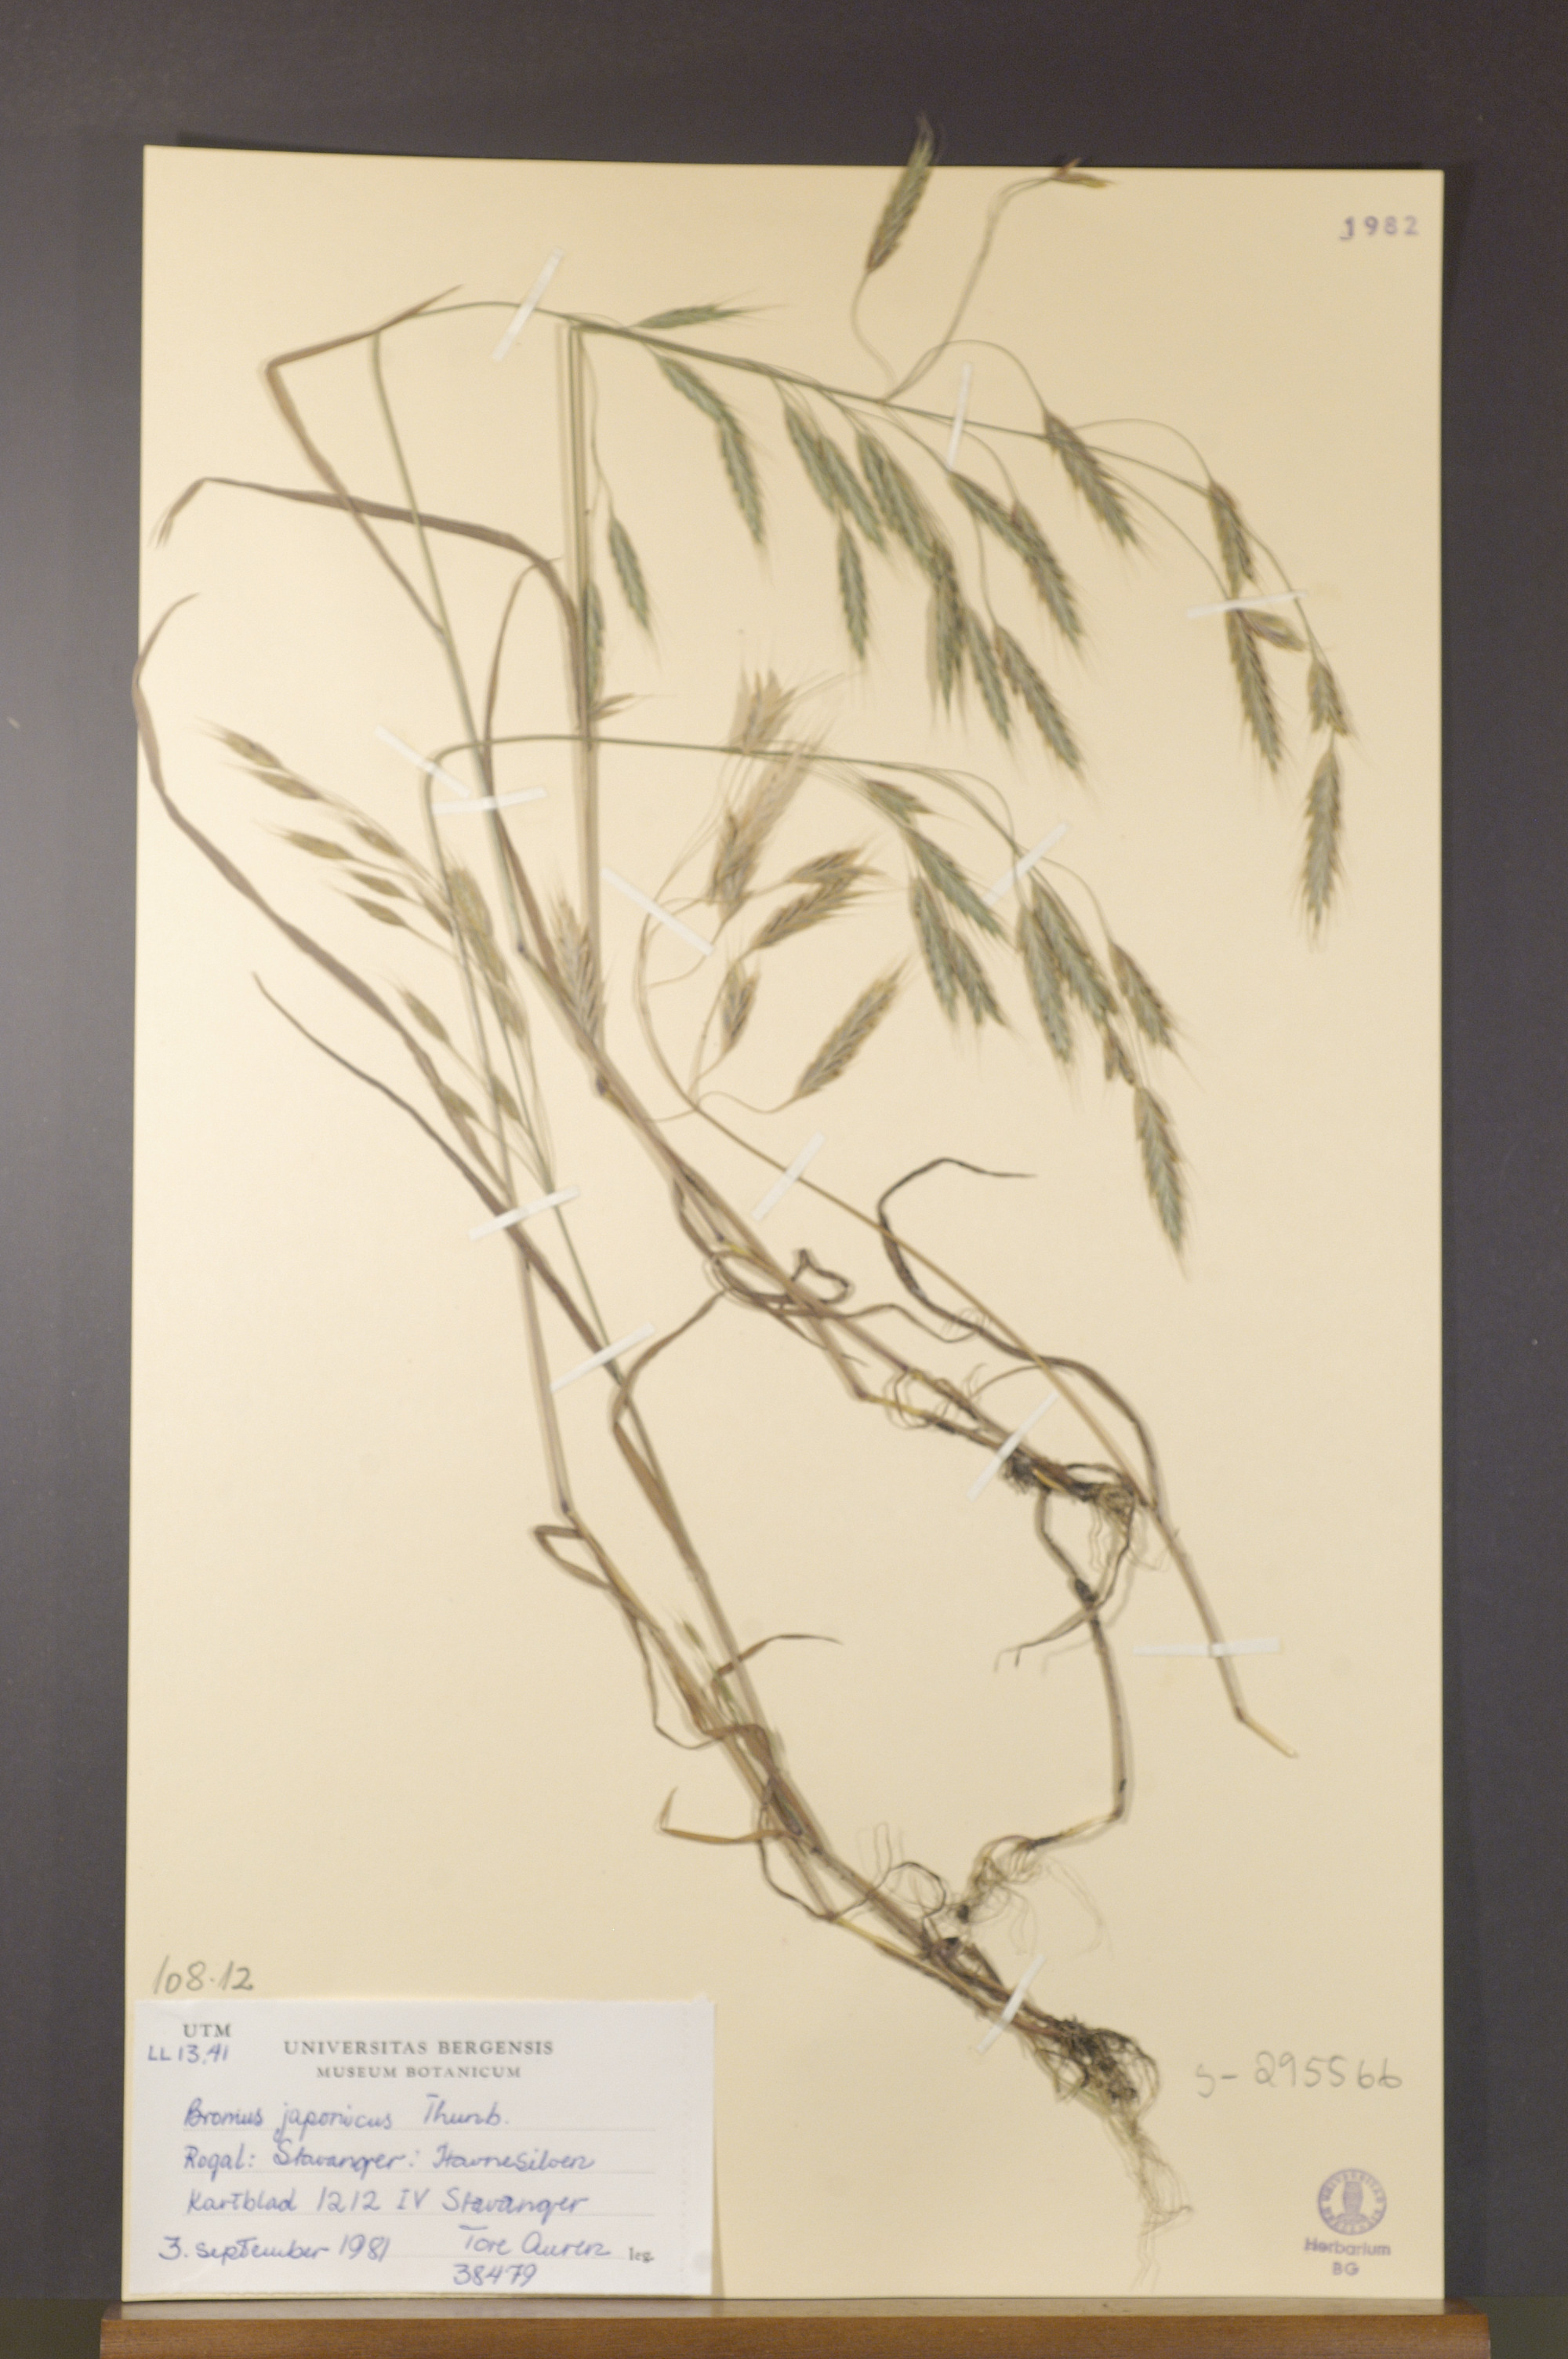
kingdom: Plantae
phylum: Tracheophyta
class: Liliopsida
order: Poales
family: Poaceae
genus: Bromus
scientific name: Bromus japonicus
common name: Japanese brome
